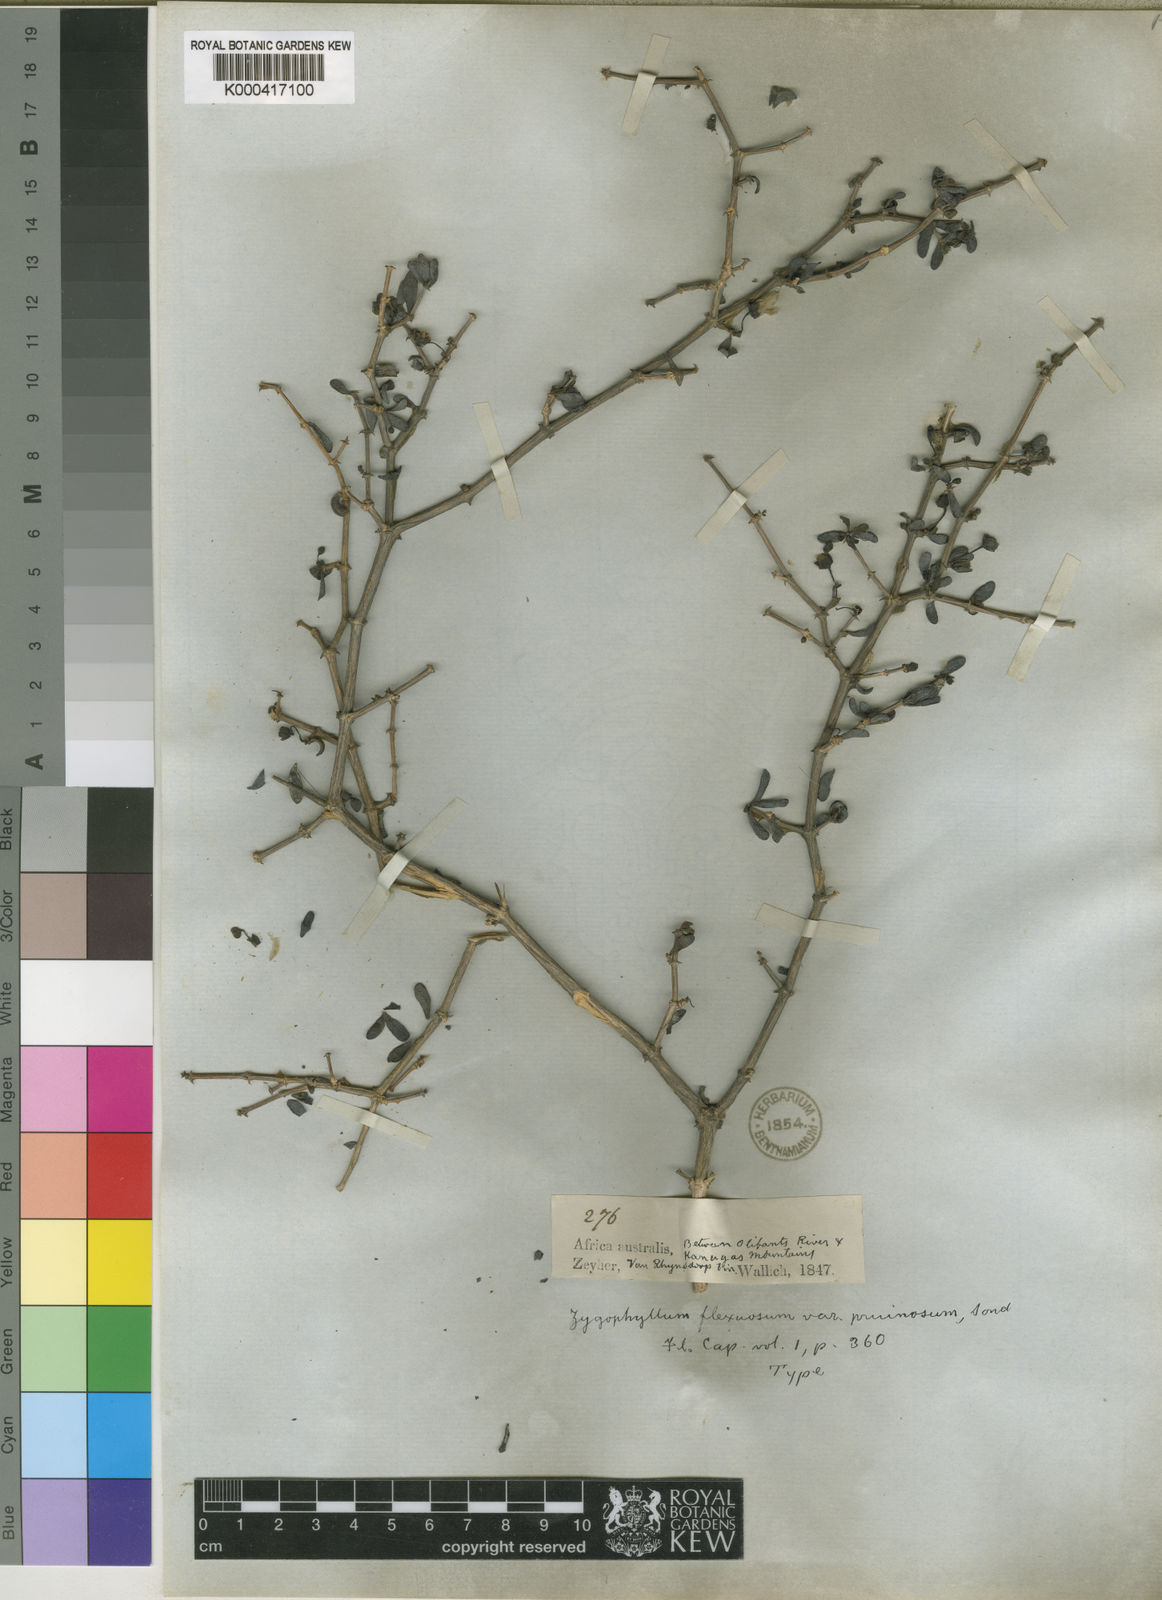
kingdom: Plantae
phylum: Tracheophyta
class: Magnoliopsida
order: Zygophyllales
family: Zygophyllaceae
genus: Roepera
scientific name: Roepera flexuosa
